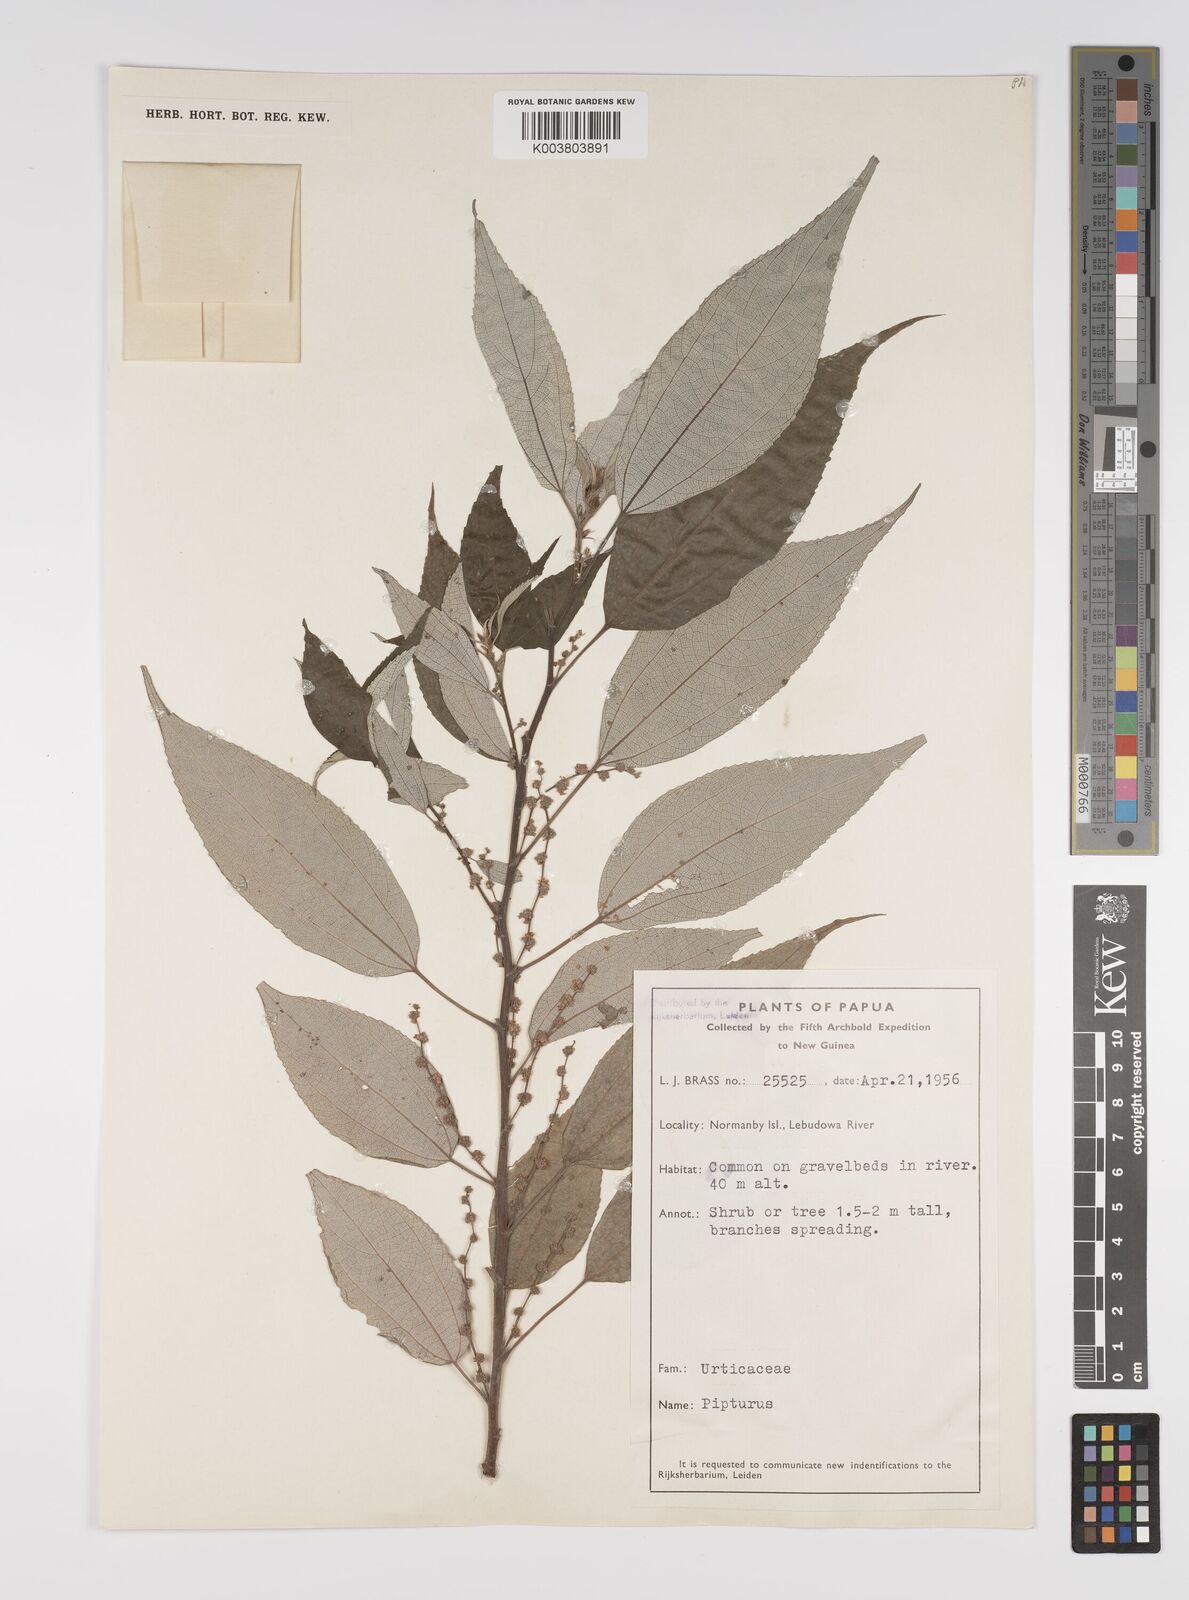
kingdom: Plantae
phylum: Tracheophyta
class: Magnoliopsida
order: Rosales
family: Urticaceae
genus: Pipturus
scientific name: Pipturus argenteus
